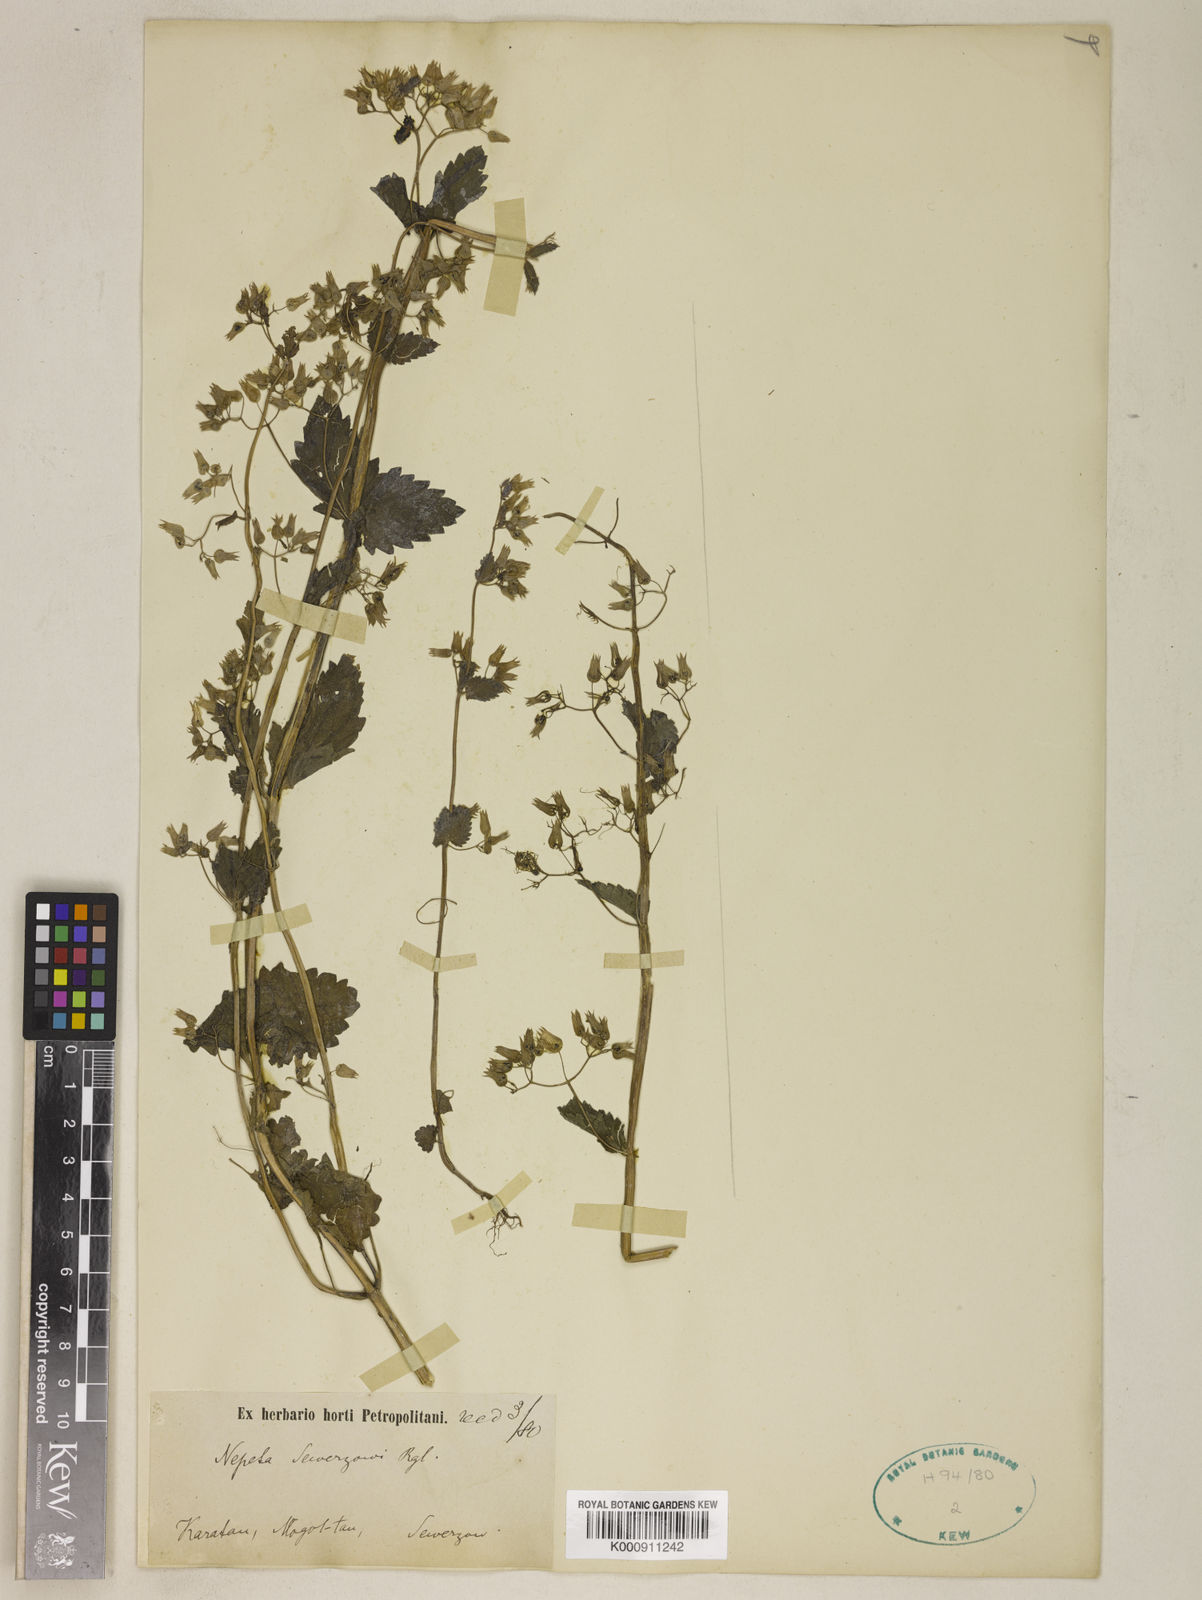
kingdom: Plantae
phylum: Tracheophyta
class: Magnoliopsida
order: Lamiales
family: Lamiaceae
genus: Drepanocaryum
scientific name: Drepanocaryum sewerzowii
